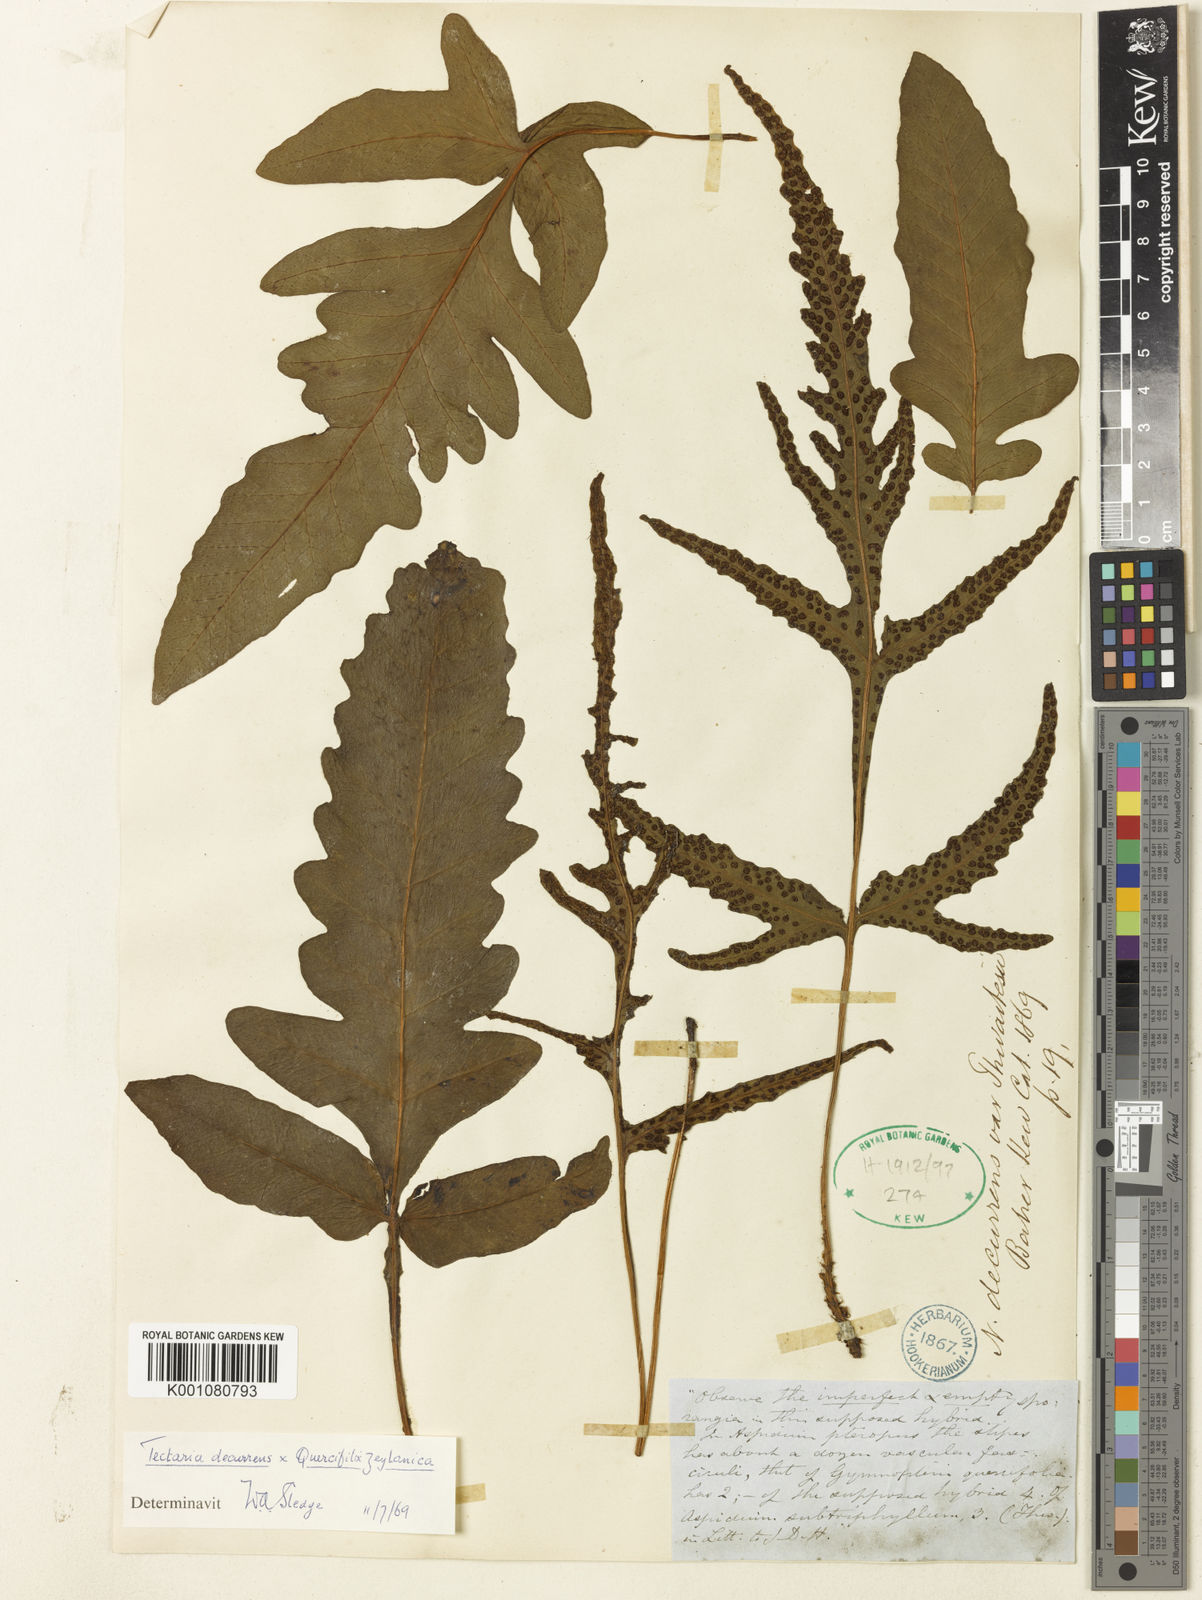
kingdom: Plantae
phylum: Tracheophyta
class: Polypodiopsida
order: Polypodiales
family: Tectariaceae
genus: Tectaria
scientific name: Tectaria decurrens
